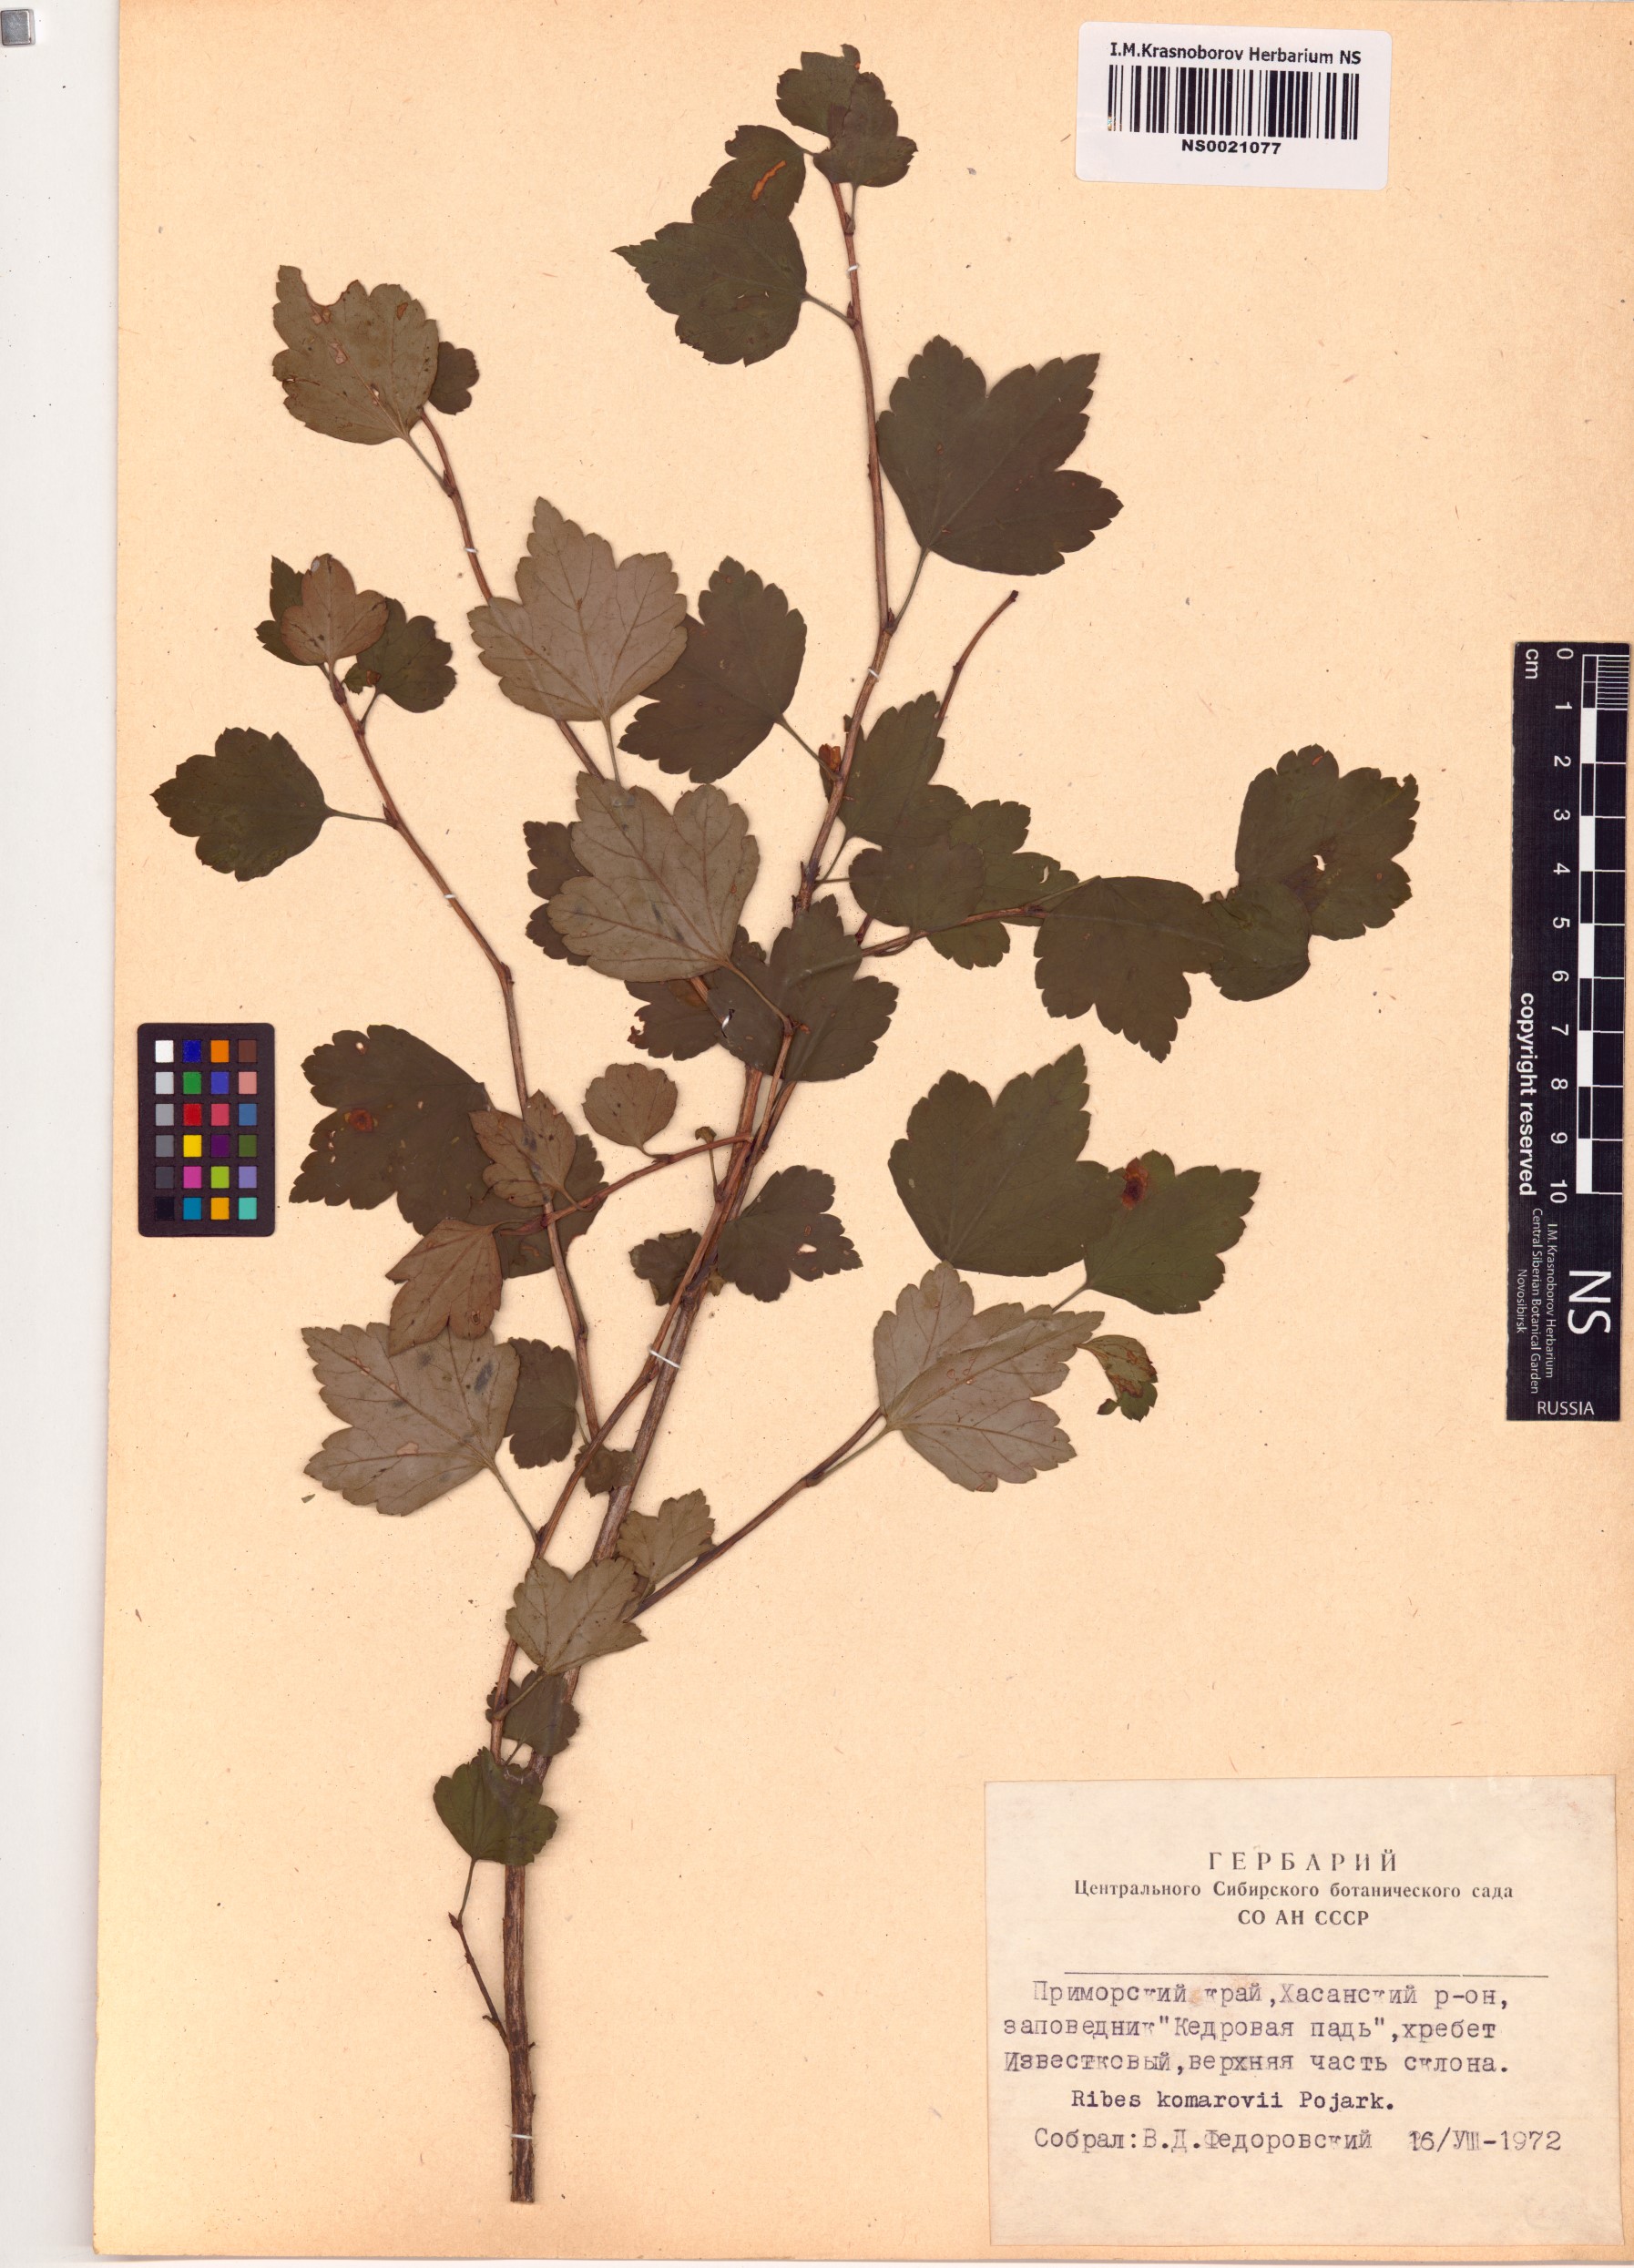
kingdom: Plantae
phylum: Tracheophyta
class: Magnoliopsida
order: Saxifragales
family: Grossulariaceae
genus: Ribes
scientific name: Ribes komarovii
